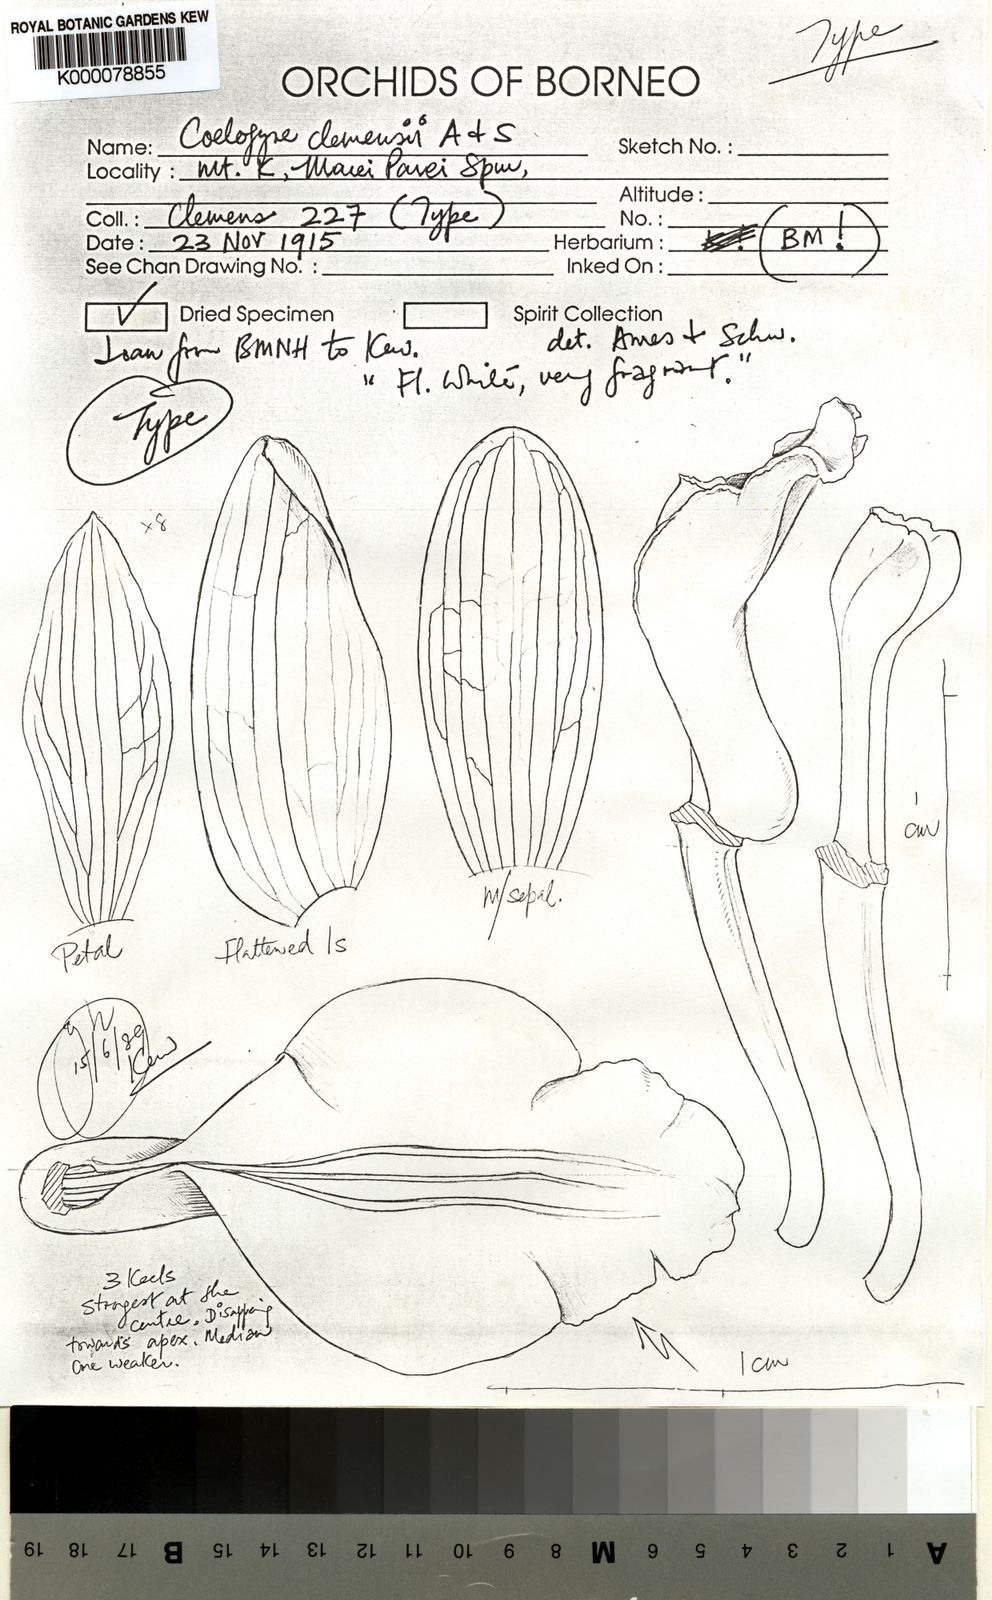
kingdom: Plantae
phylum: Tracheophyta
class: Liliopsida
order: Asparagales
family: Orchidaceae
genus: Coelogyne
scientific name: Coelogyne clemensii
